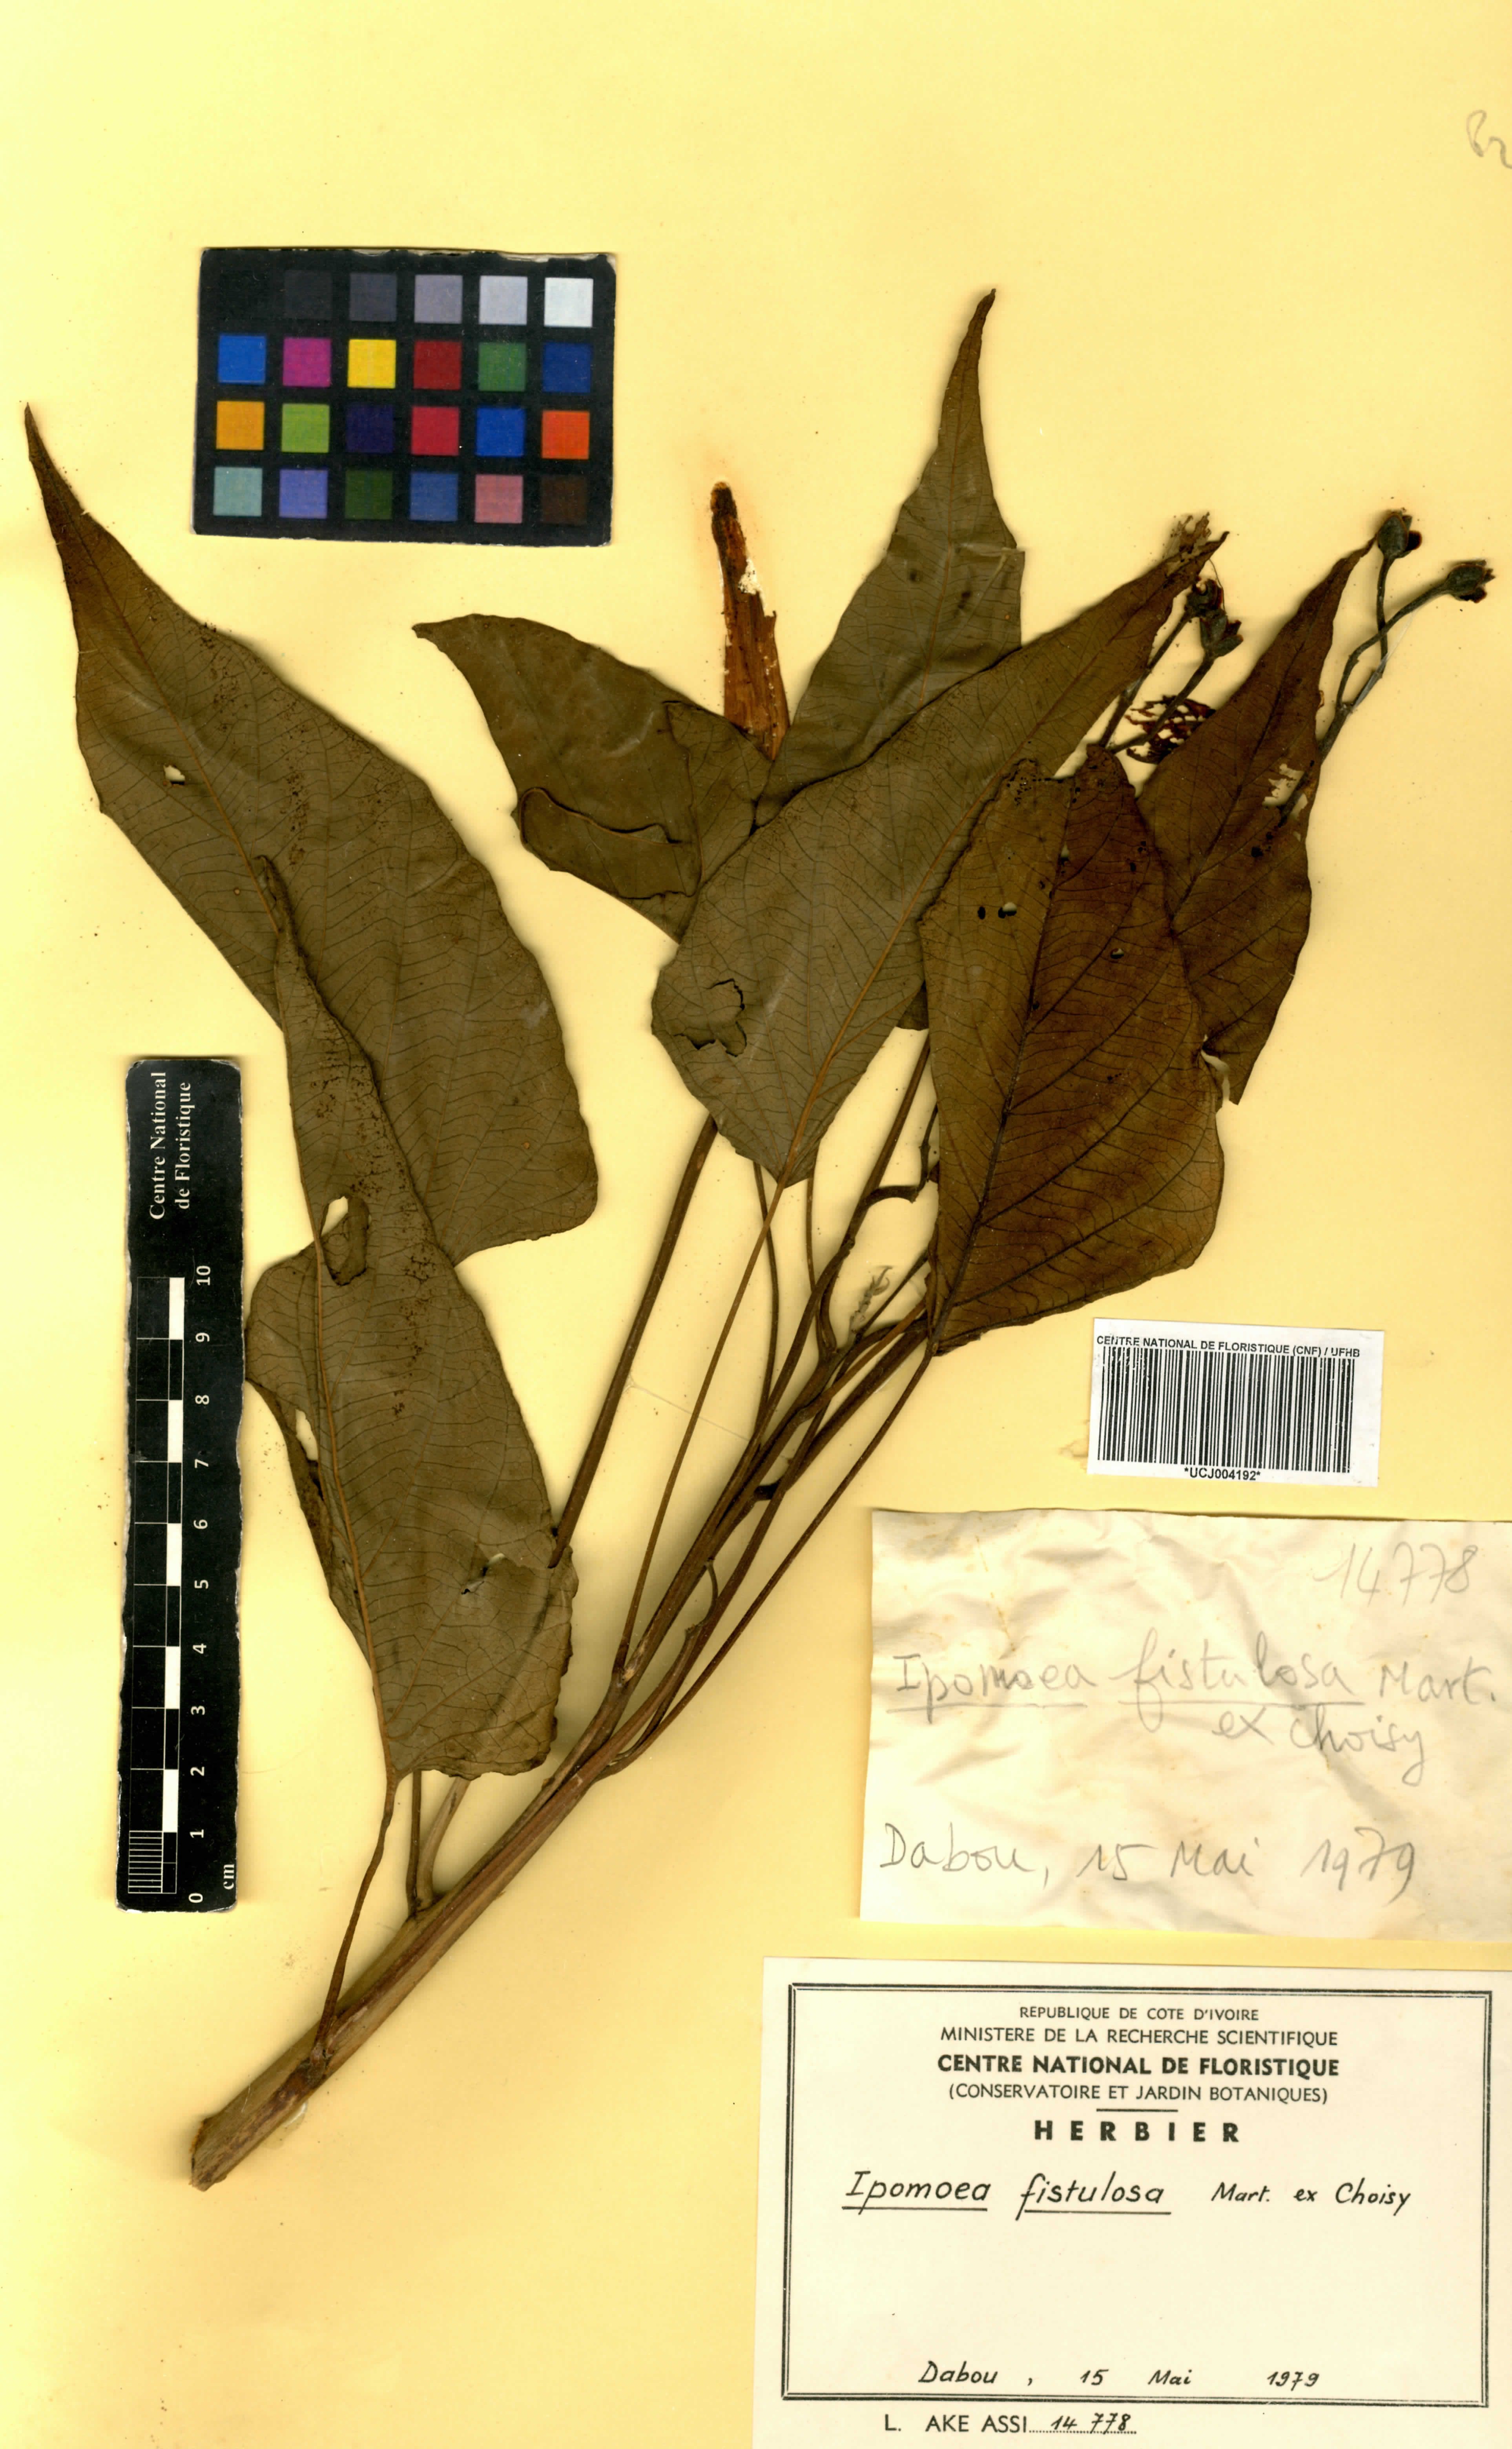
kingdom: Plantae
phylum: Tracheophyta
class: Magnoliopsida
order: Solanales
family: Convolvulaceae
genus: Ipomoea
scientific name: Ipomoea carnea
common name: Morning-glory
